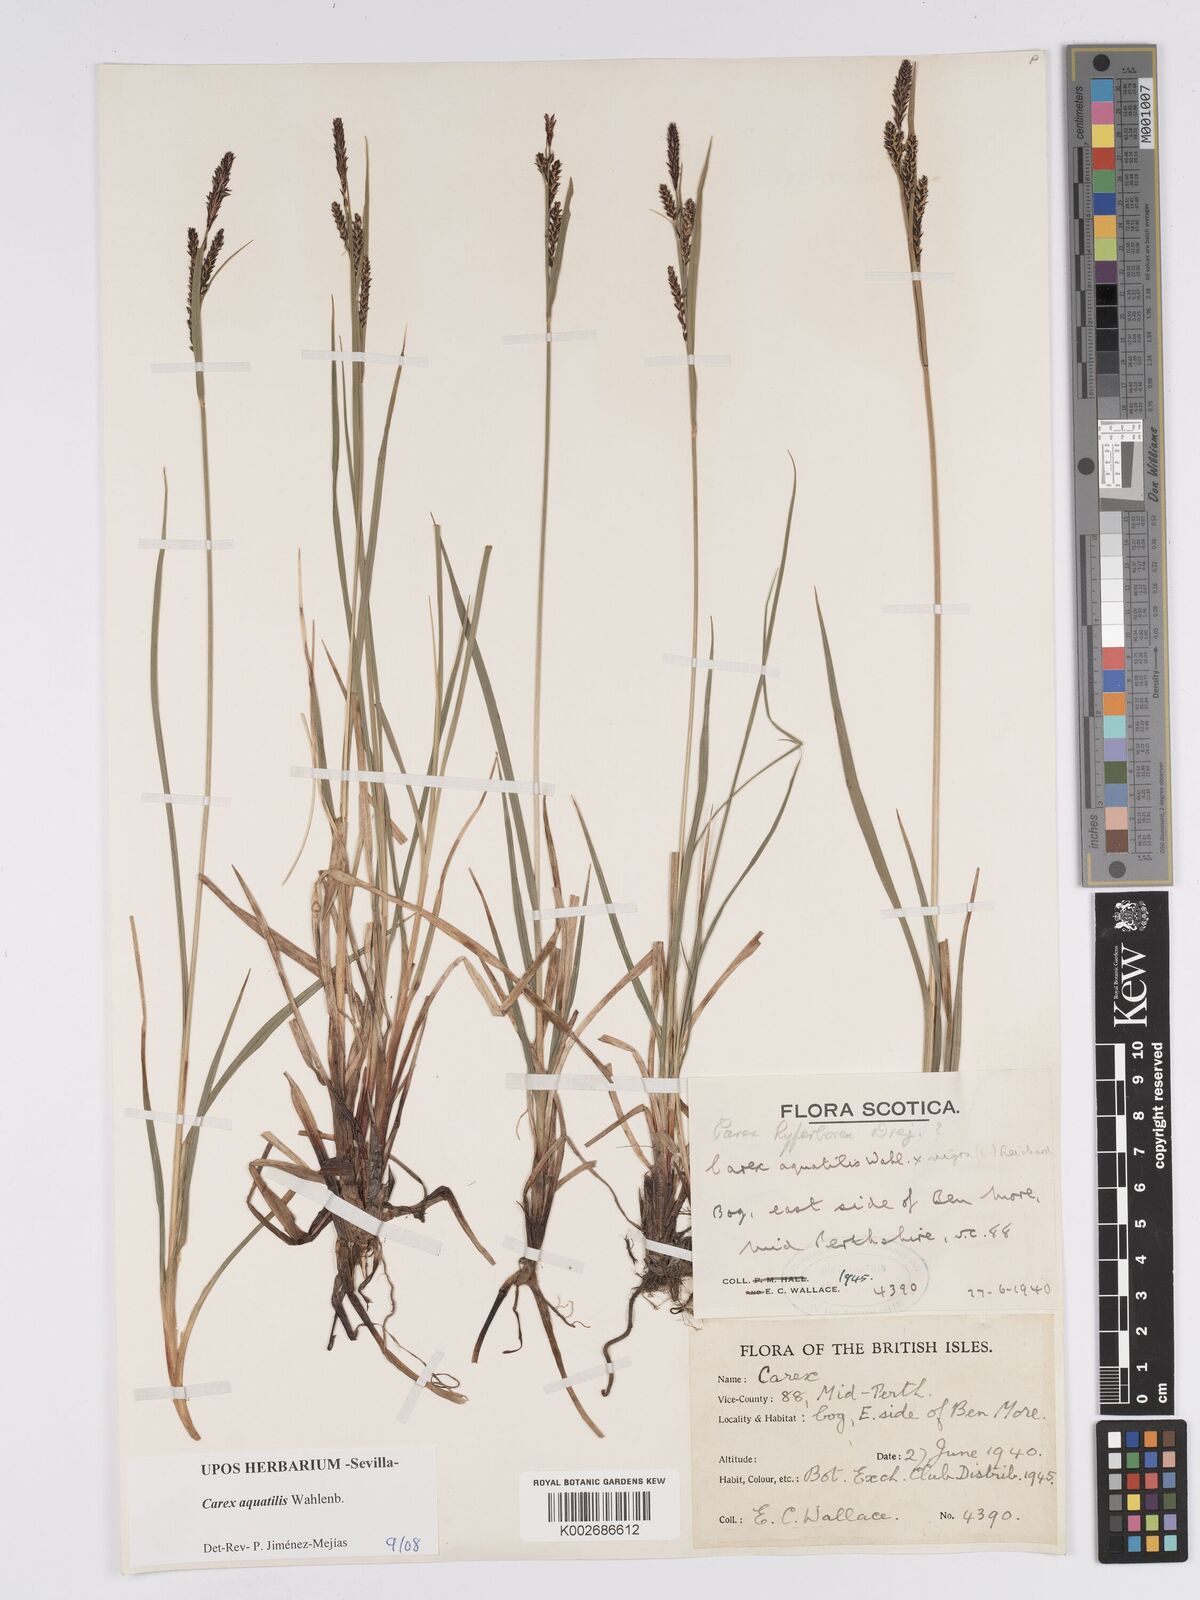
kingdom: Plantae
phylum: Tracheophyta
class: Liliopsida
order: Poales
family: Cyperaceae
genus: Carex
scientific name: Carex aquatilis
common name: Water sedge
